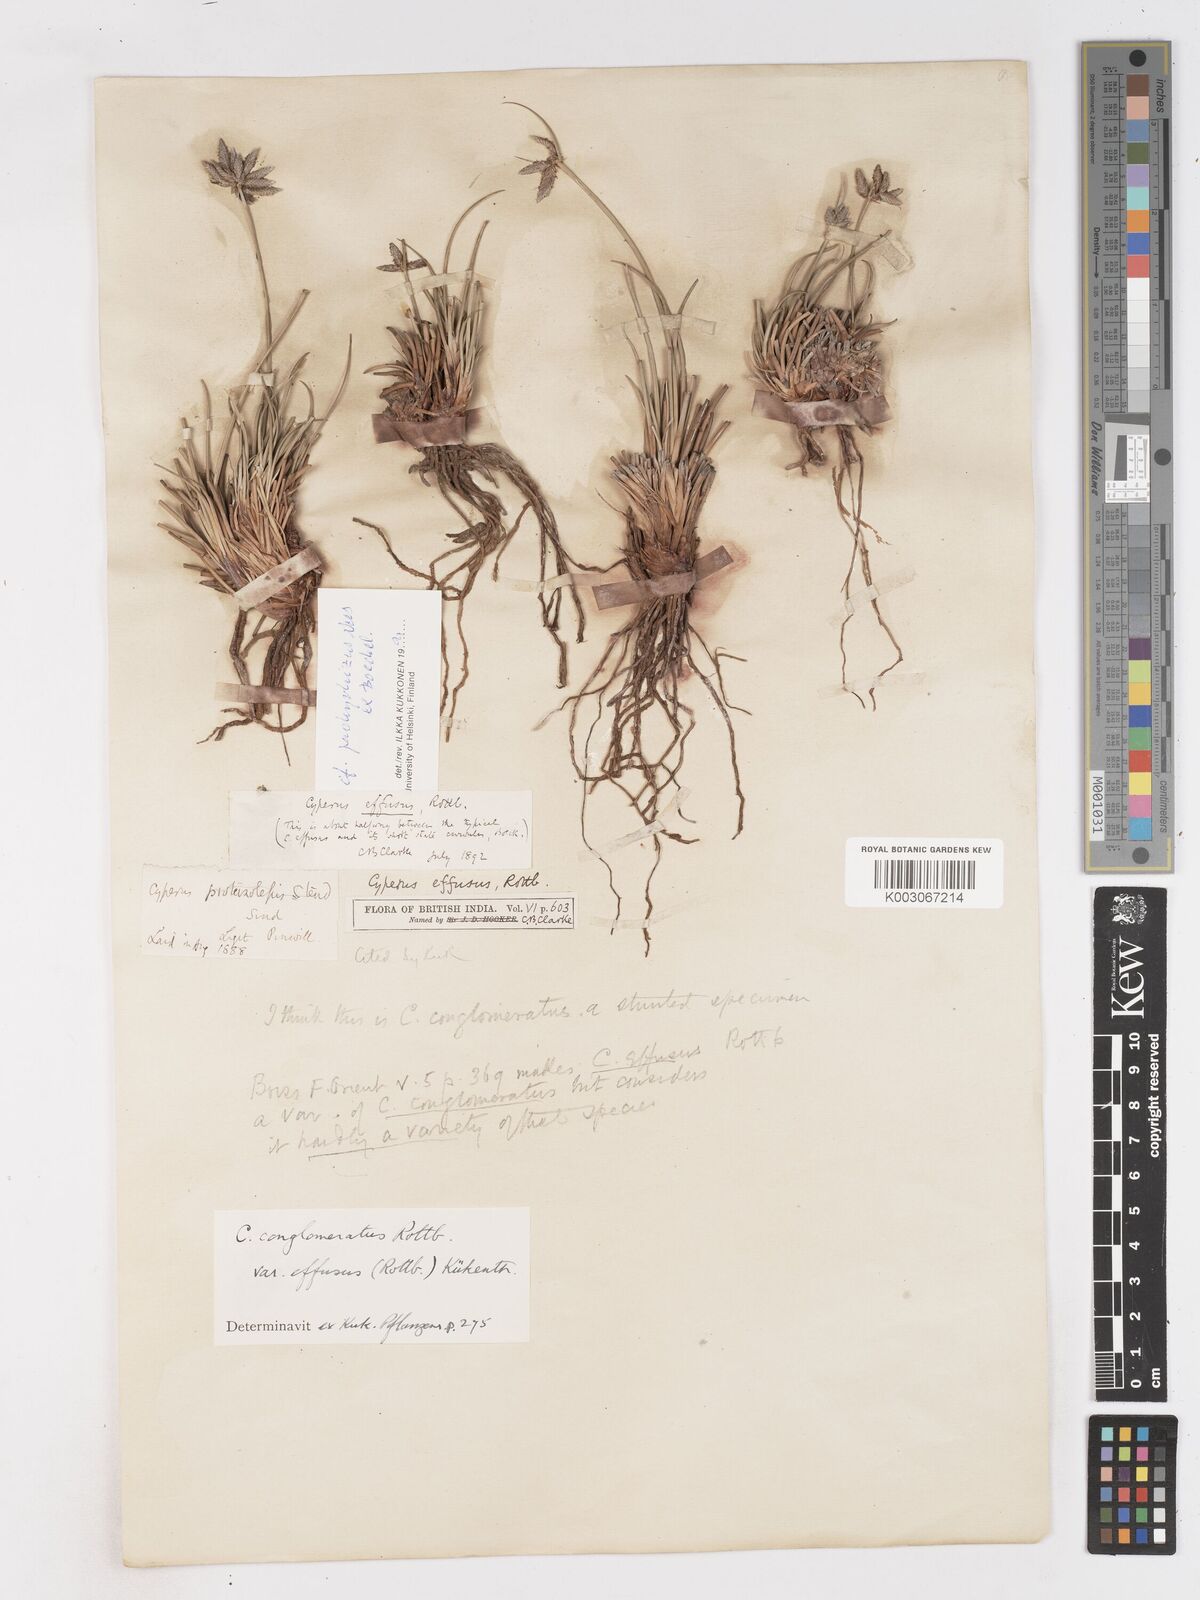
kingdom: Plantae
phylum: Tracheophyta
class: Liliopsida
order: Poales
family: Cyperaceae
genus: Cyperus
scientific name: Cyperus conglomeratus
